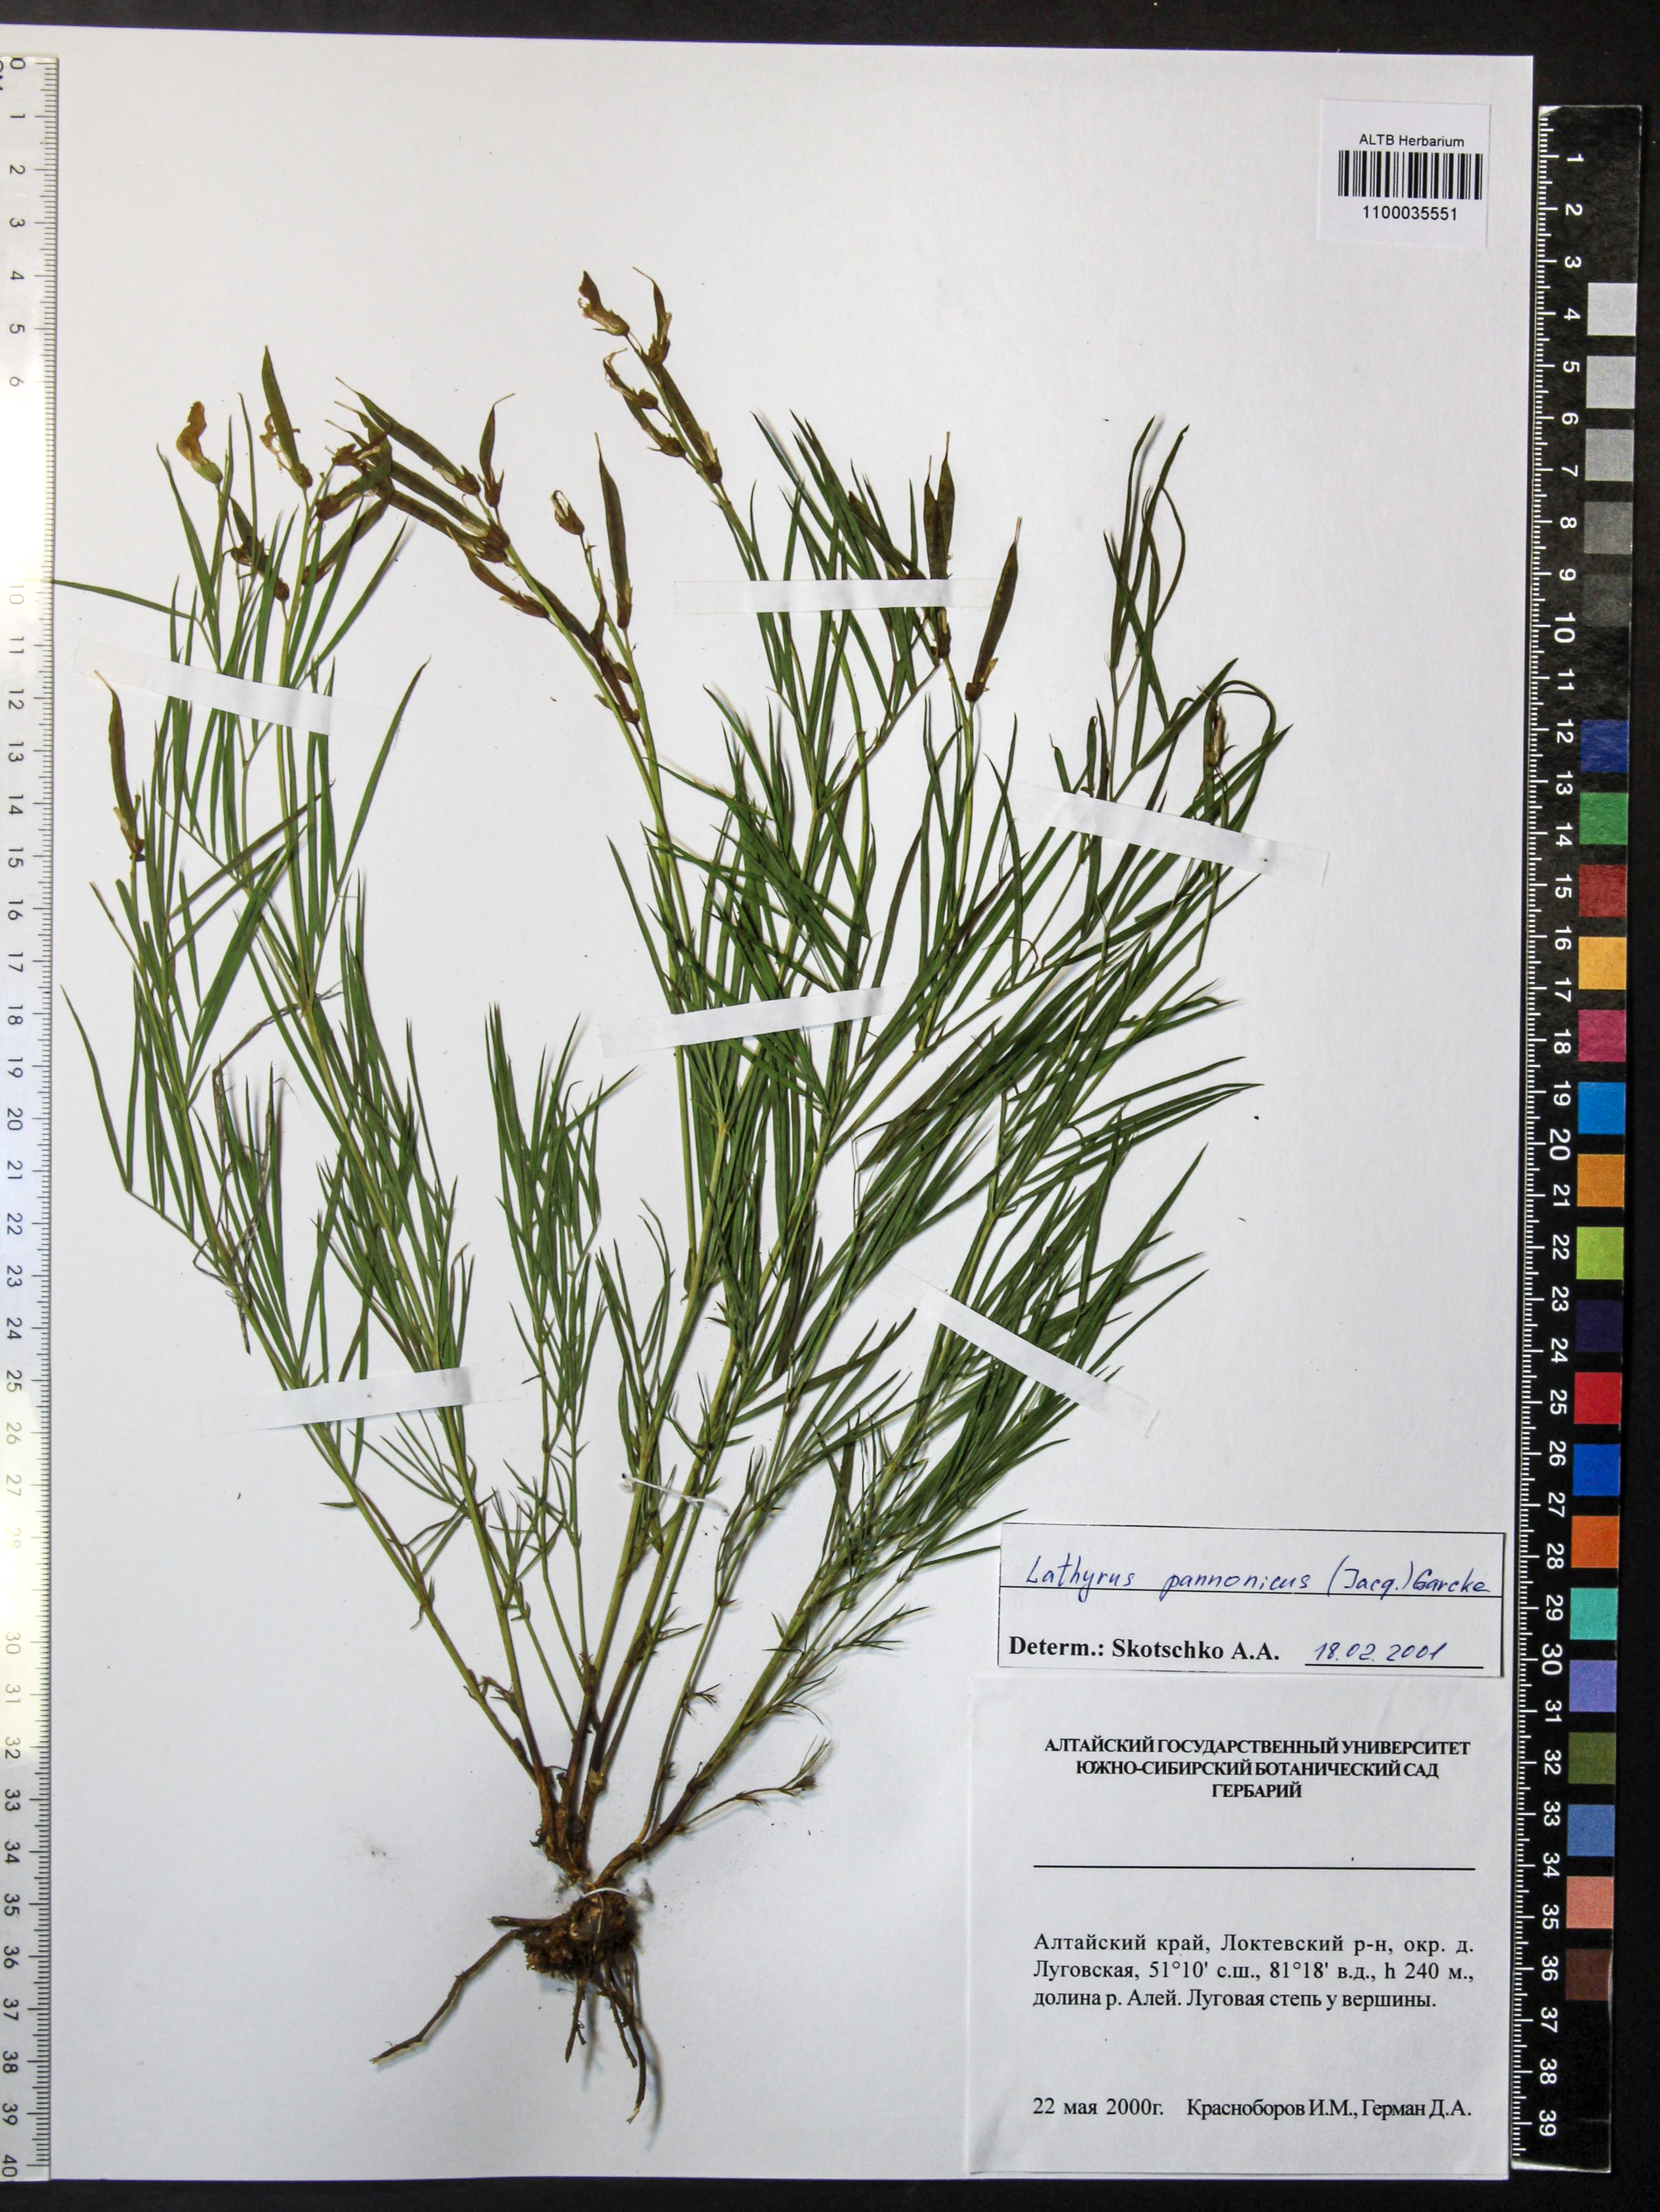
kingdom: Plantae
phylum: Tracheophyta
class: Magnoliopsida
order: Fabales
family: Fabaceae
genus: Lathyrus
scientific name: Lathyrus pannonicus
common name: Pea
